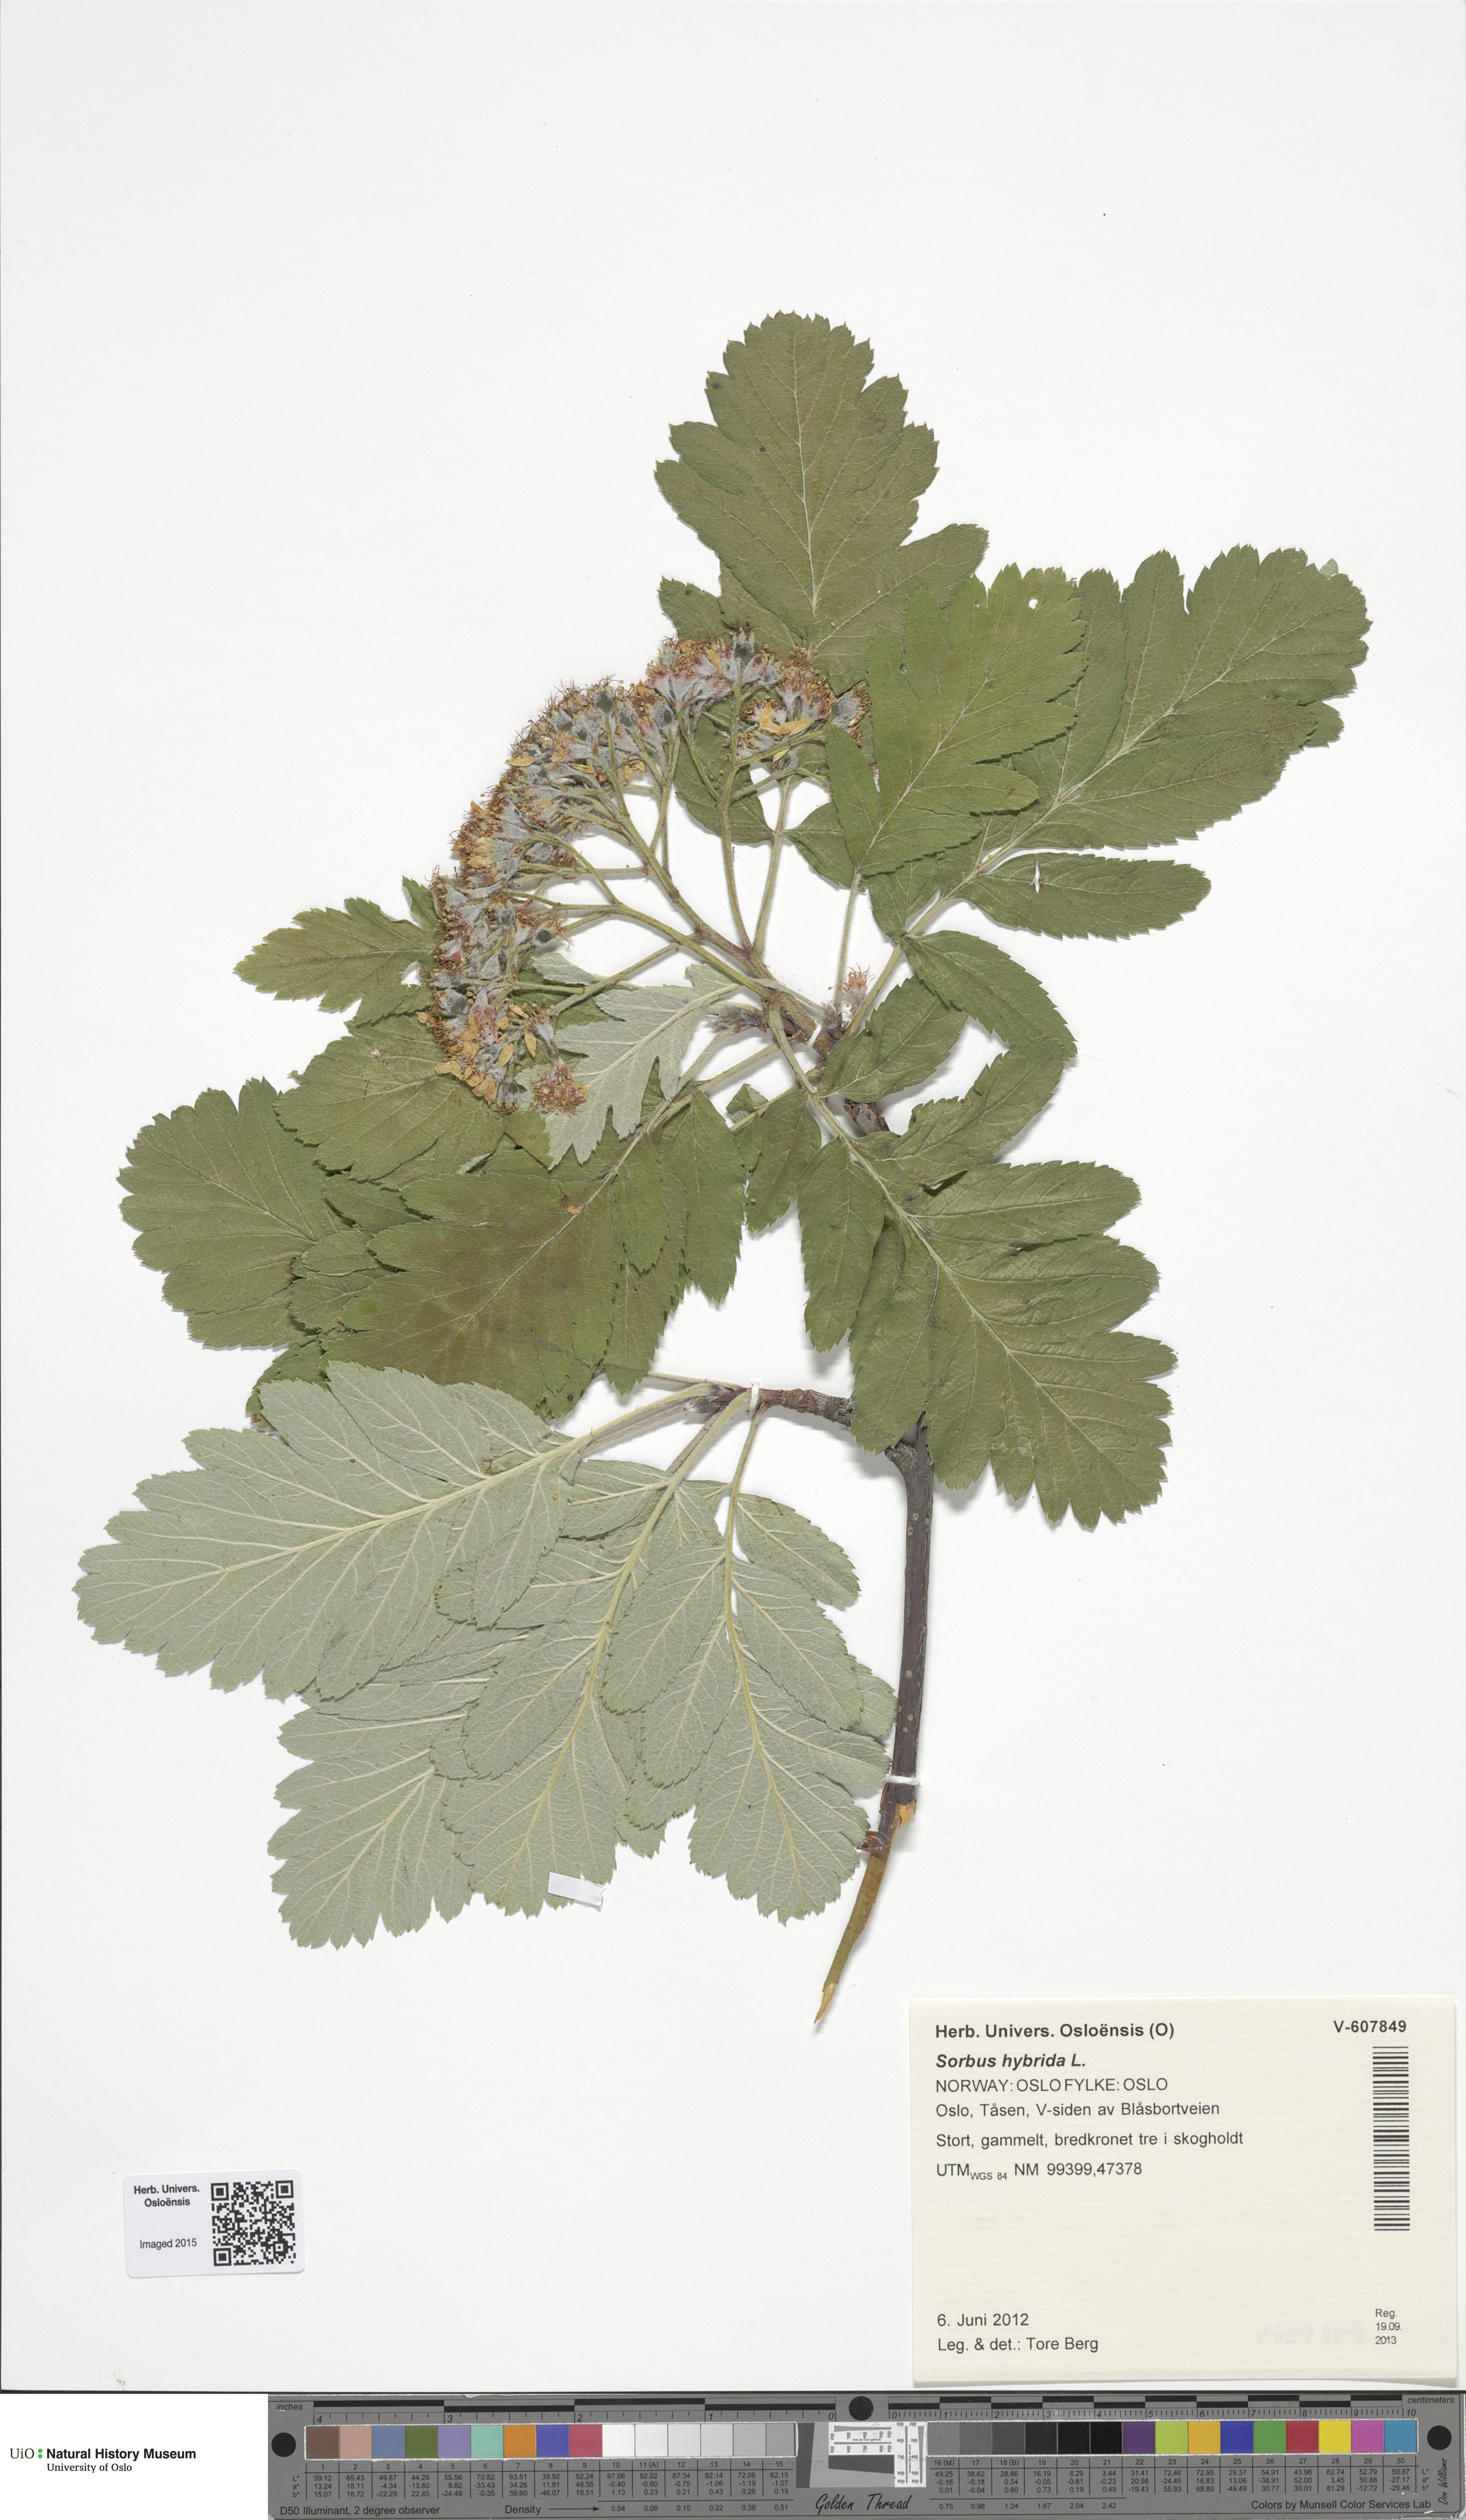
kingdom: Plantae
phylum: Tracheophyta
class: Magnoliopsida
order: Rosales
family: Rosaceae
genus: Hedlundia
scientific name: Hedlundia hybrida
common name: Swedish service-tree
